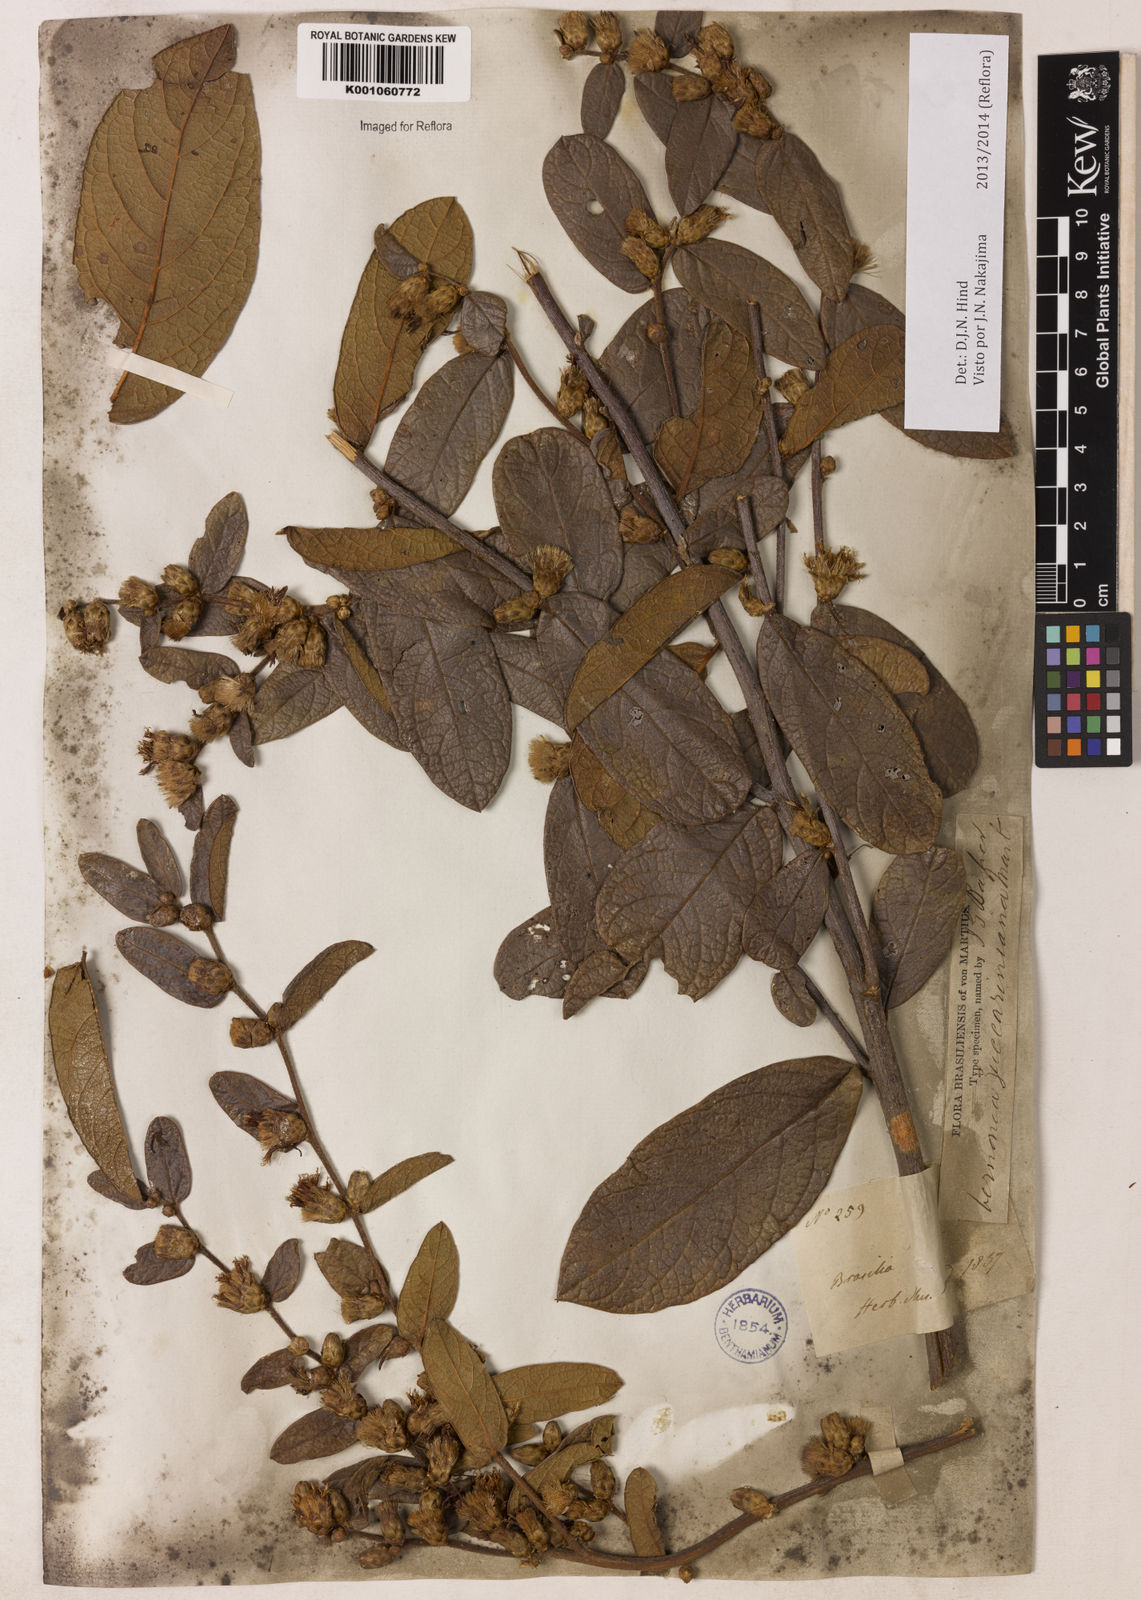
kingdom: Plantae
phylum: Tracheophyta
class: Magnoliopsida
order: Asterales
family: Asteraceae
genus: Lessingianthus
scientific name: Lessingianthus zuccarinianus
